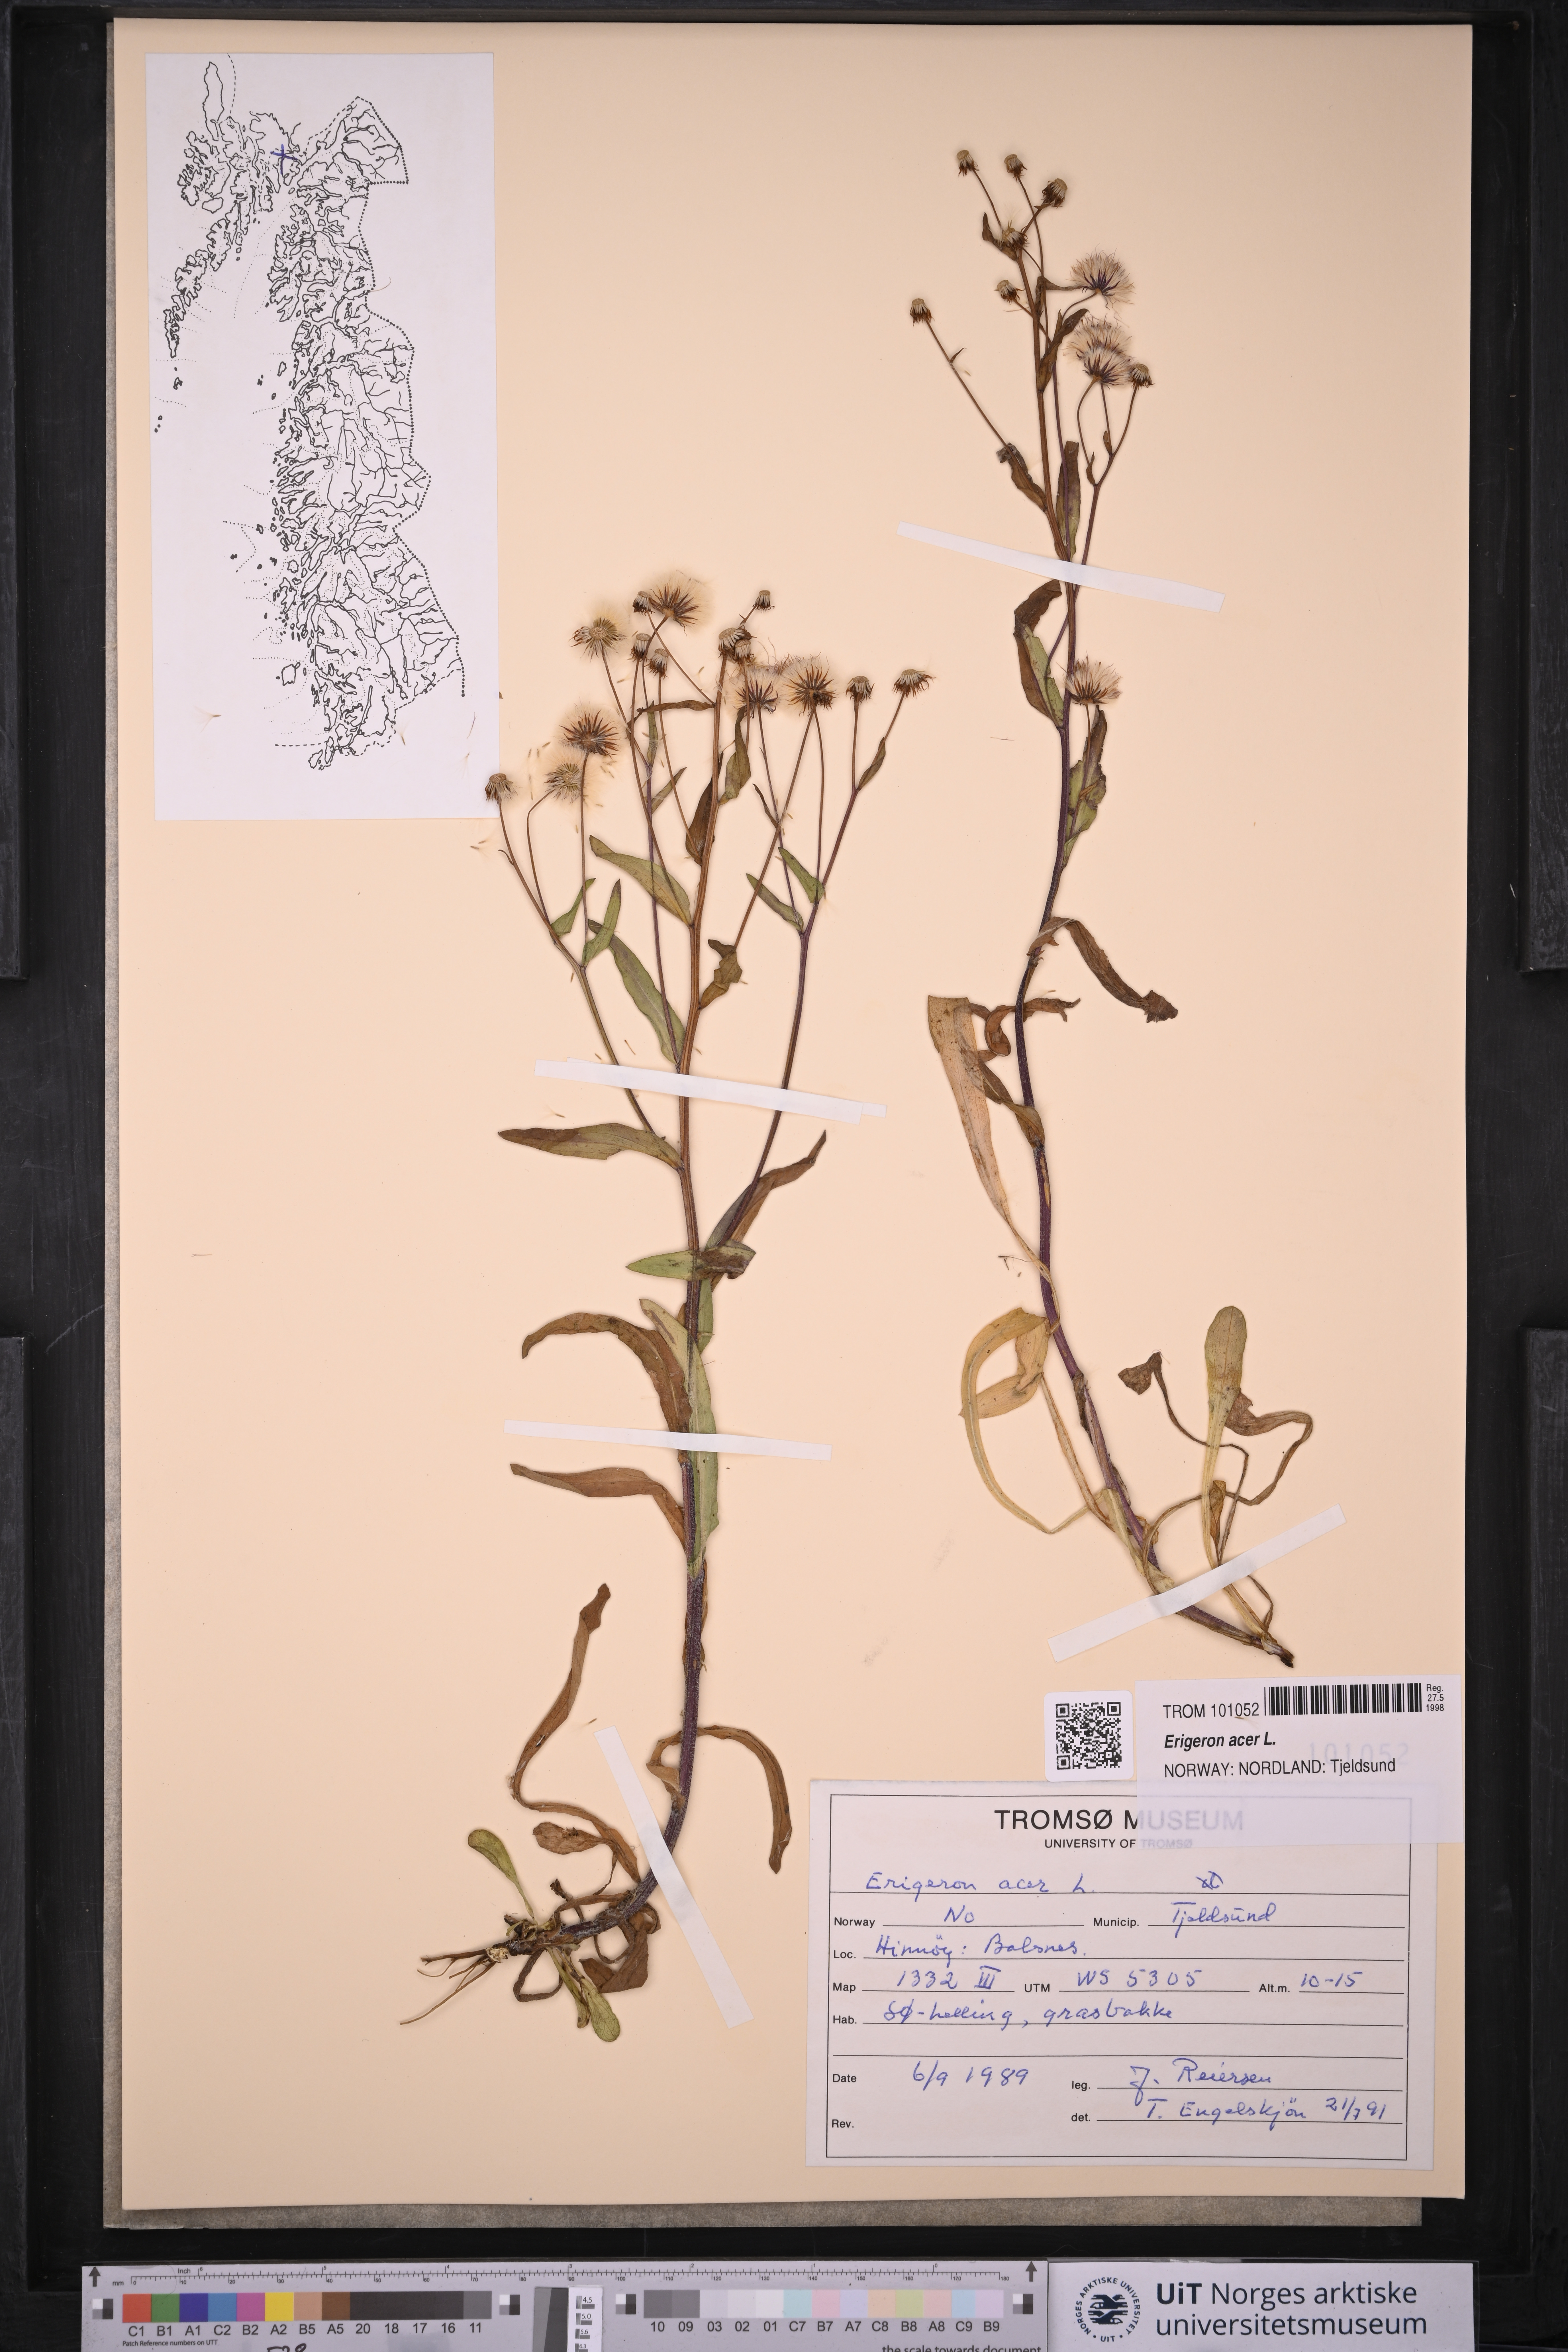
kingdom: Plantae
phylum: Tracheophyta
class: Magnoliopsida
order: Asterales
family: Asteraceae
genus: Erigeron
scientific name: Erigeron acris
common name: Blue fleabane
